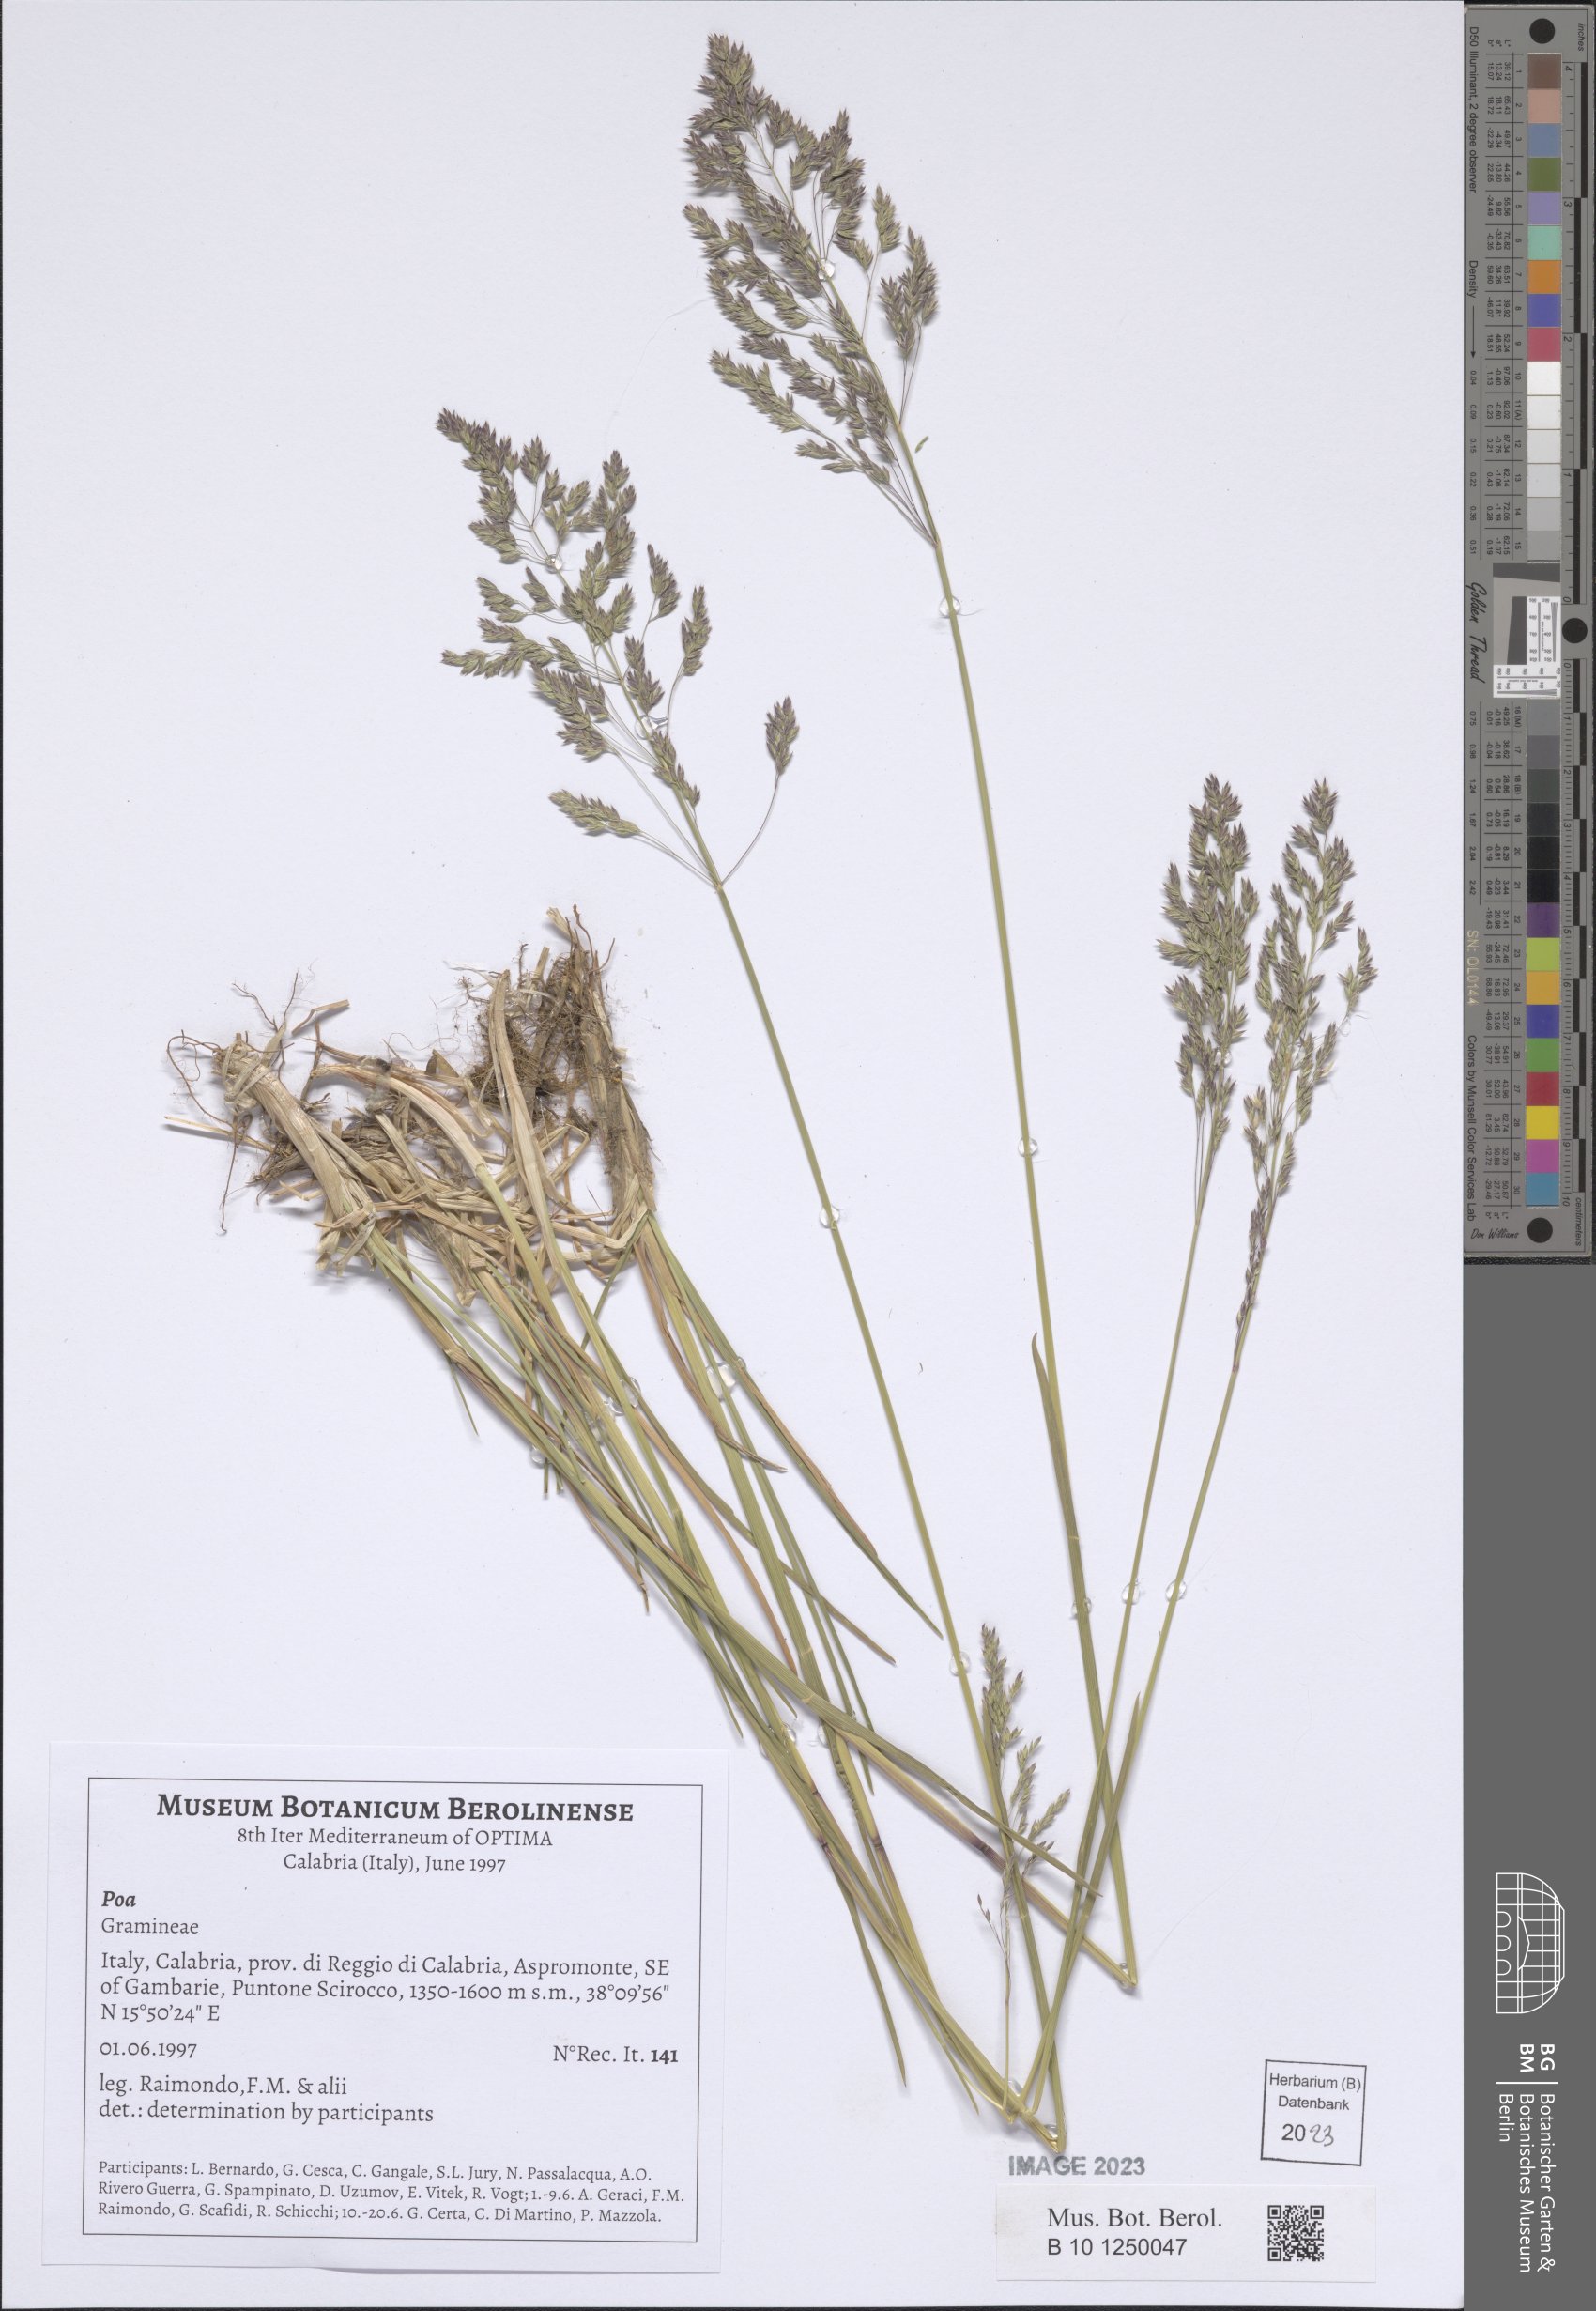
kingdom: Plantae
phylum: Tracheophyta
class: Liliopsida
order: Poales
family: Poaceae
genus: Poa
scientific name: Poa
